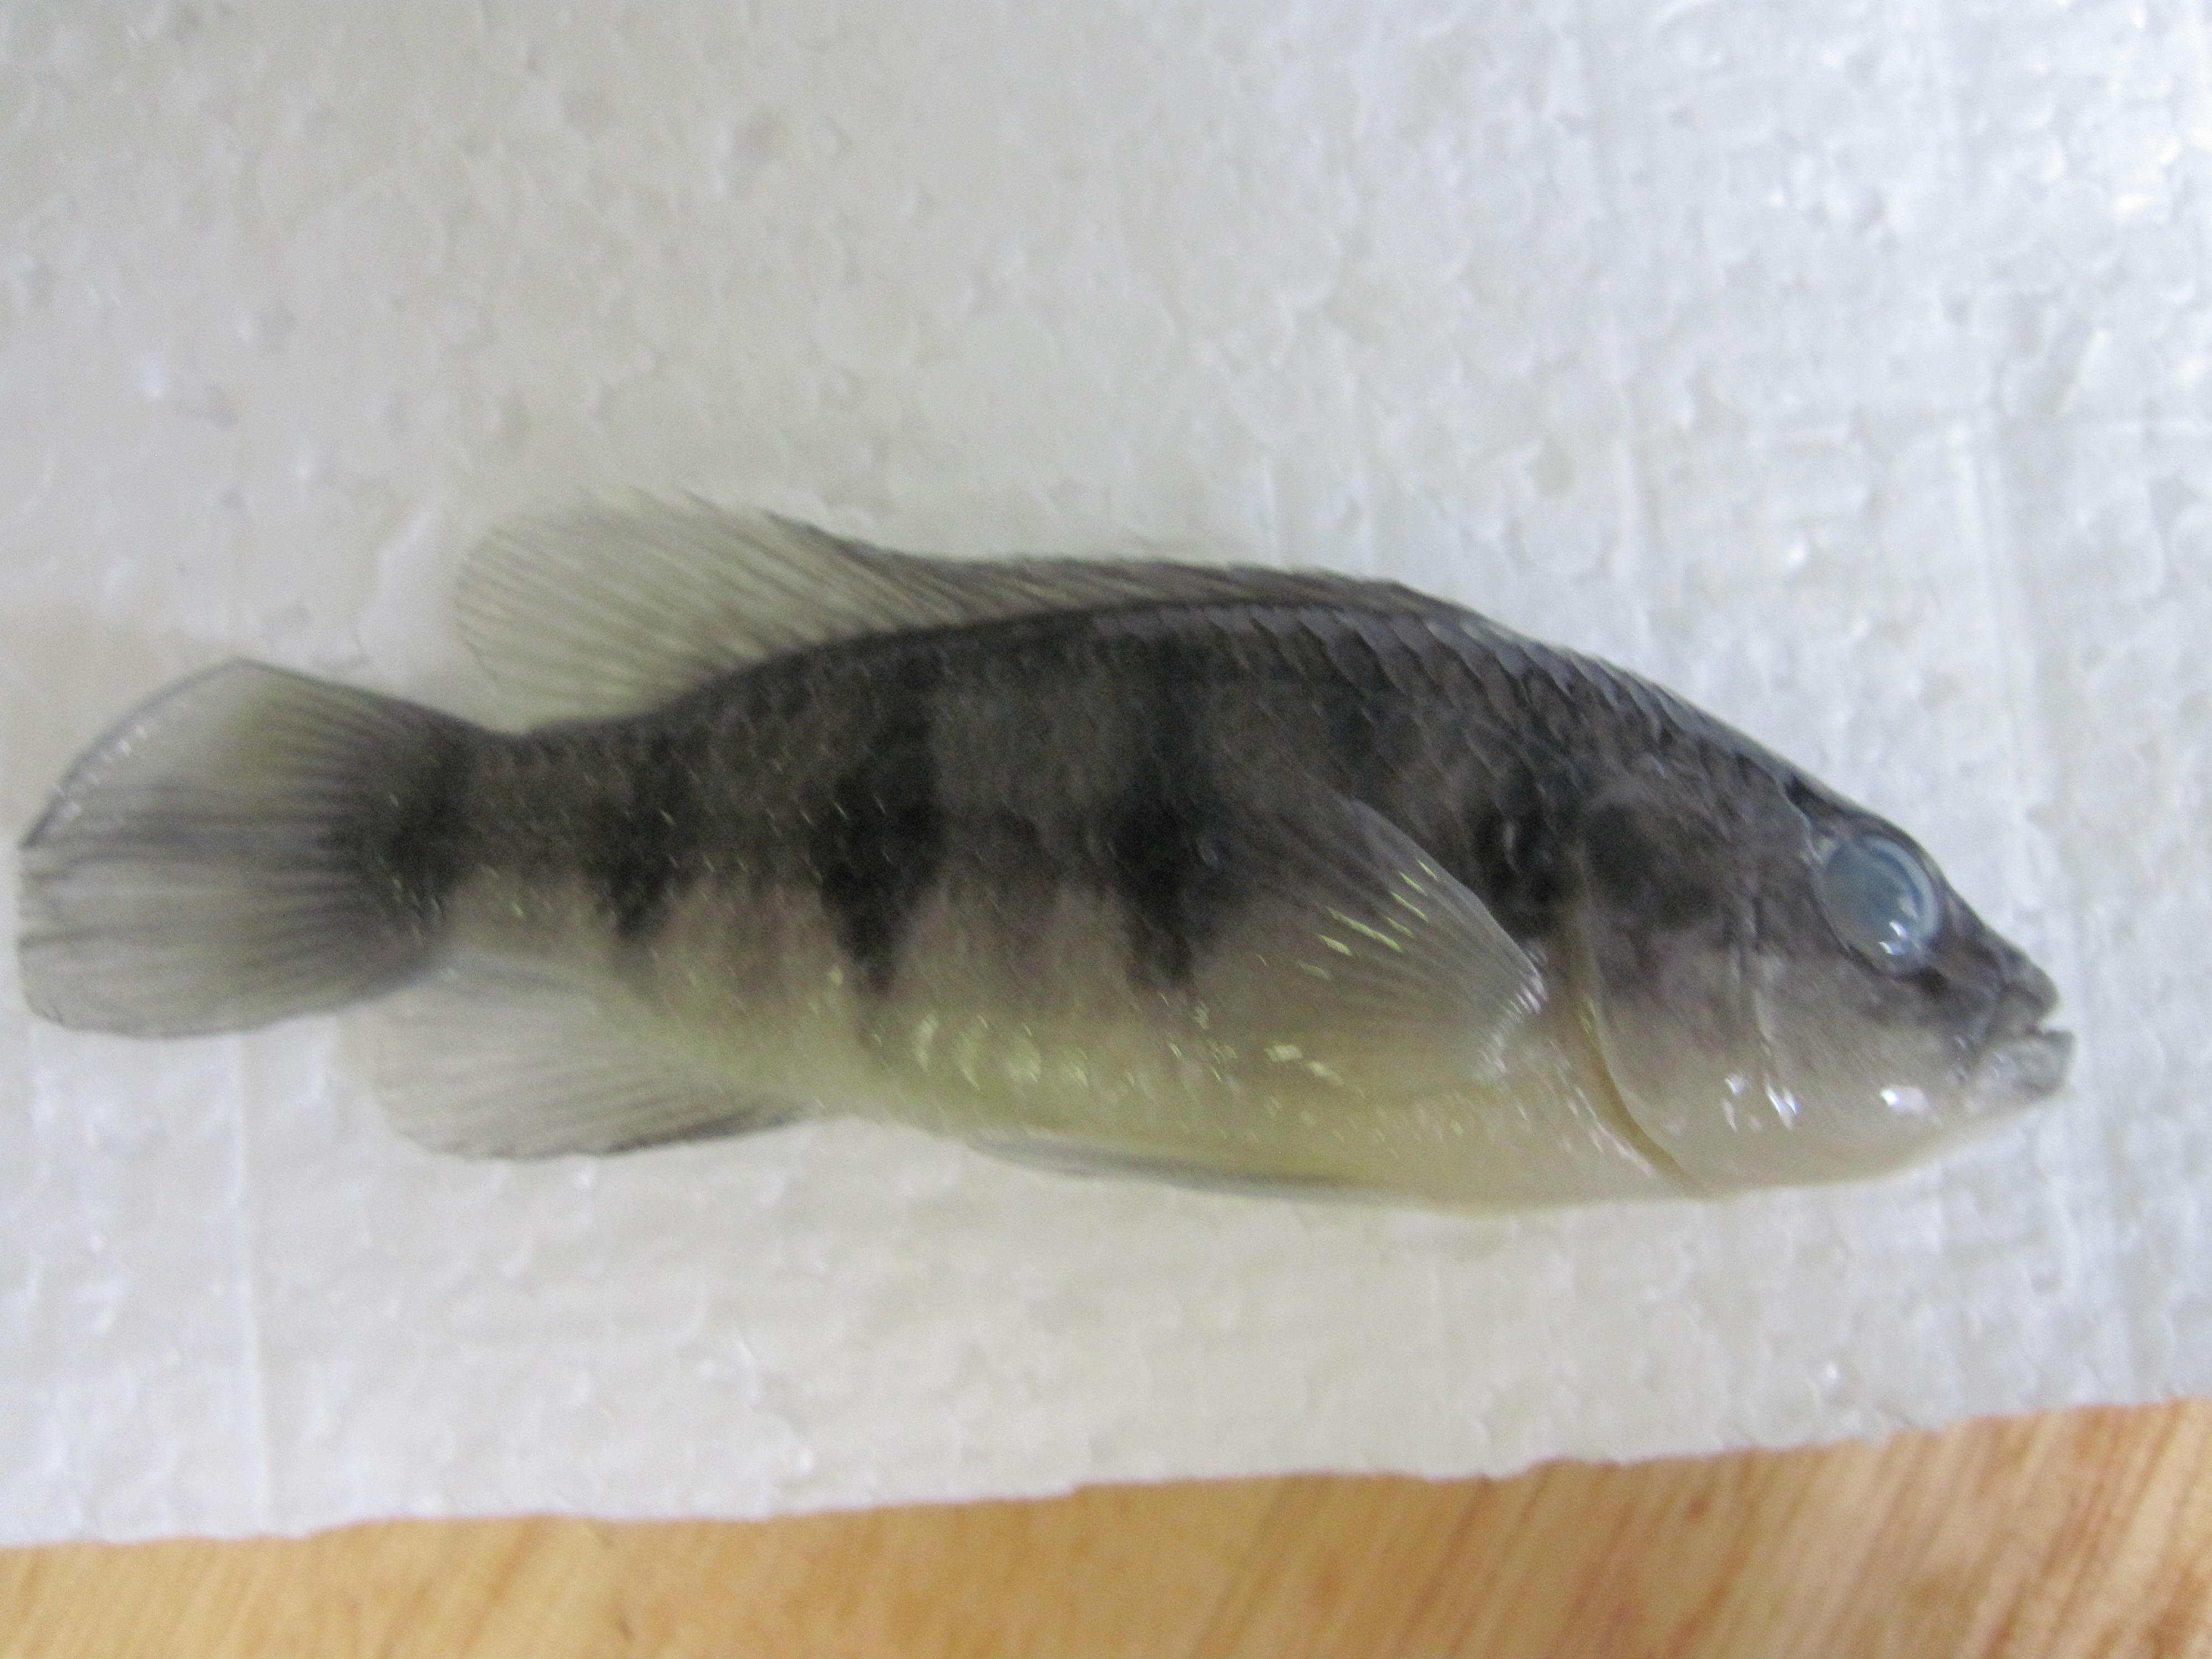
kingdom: Animalia
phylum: Chordata
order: Perciformes
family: Cichlidae
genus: Hemichromis
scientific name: Hemichromis elongatus
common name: Jewel cichlid
